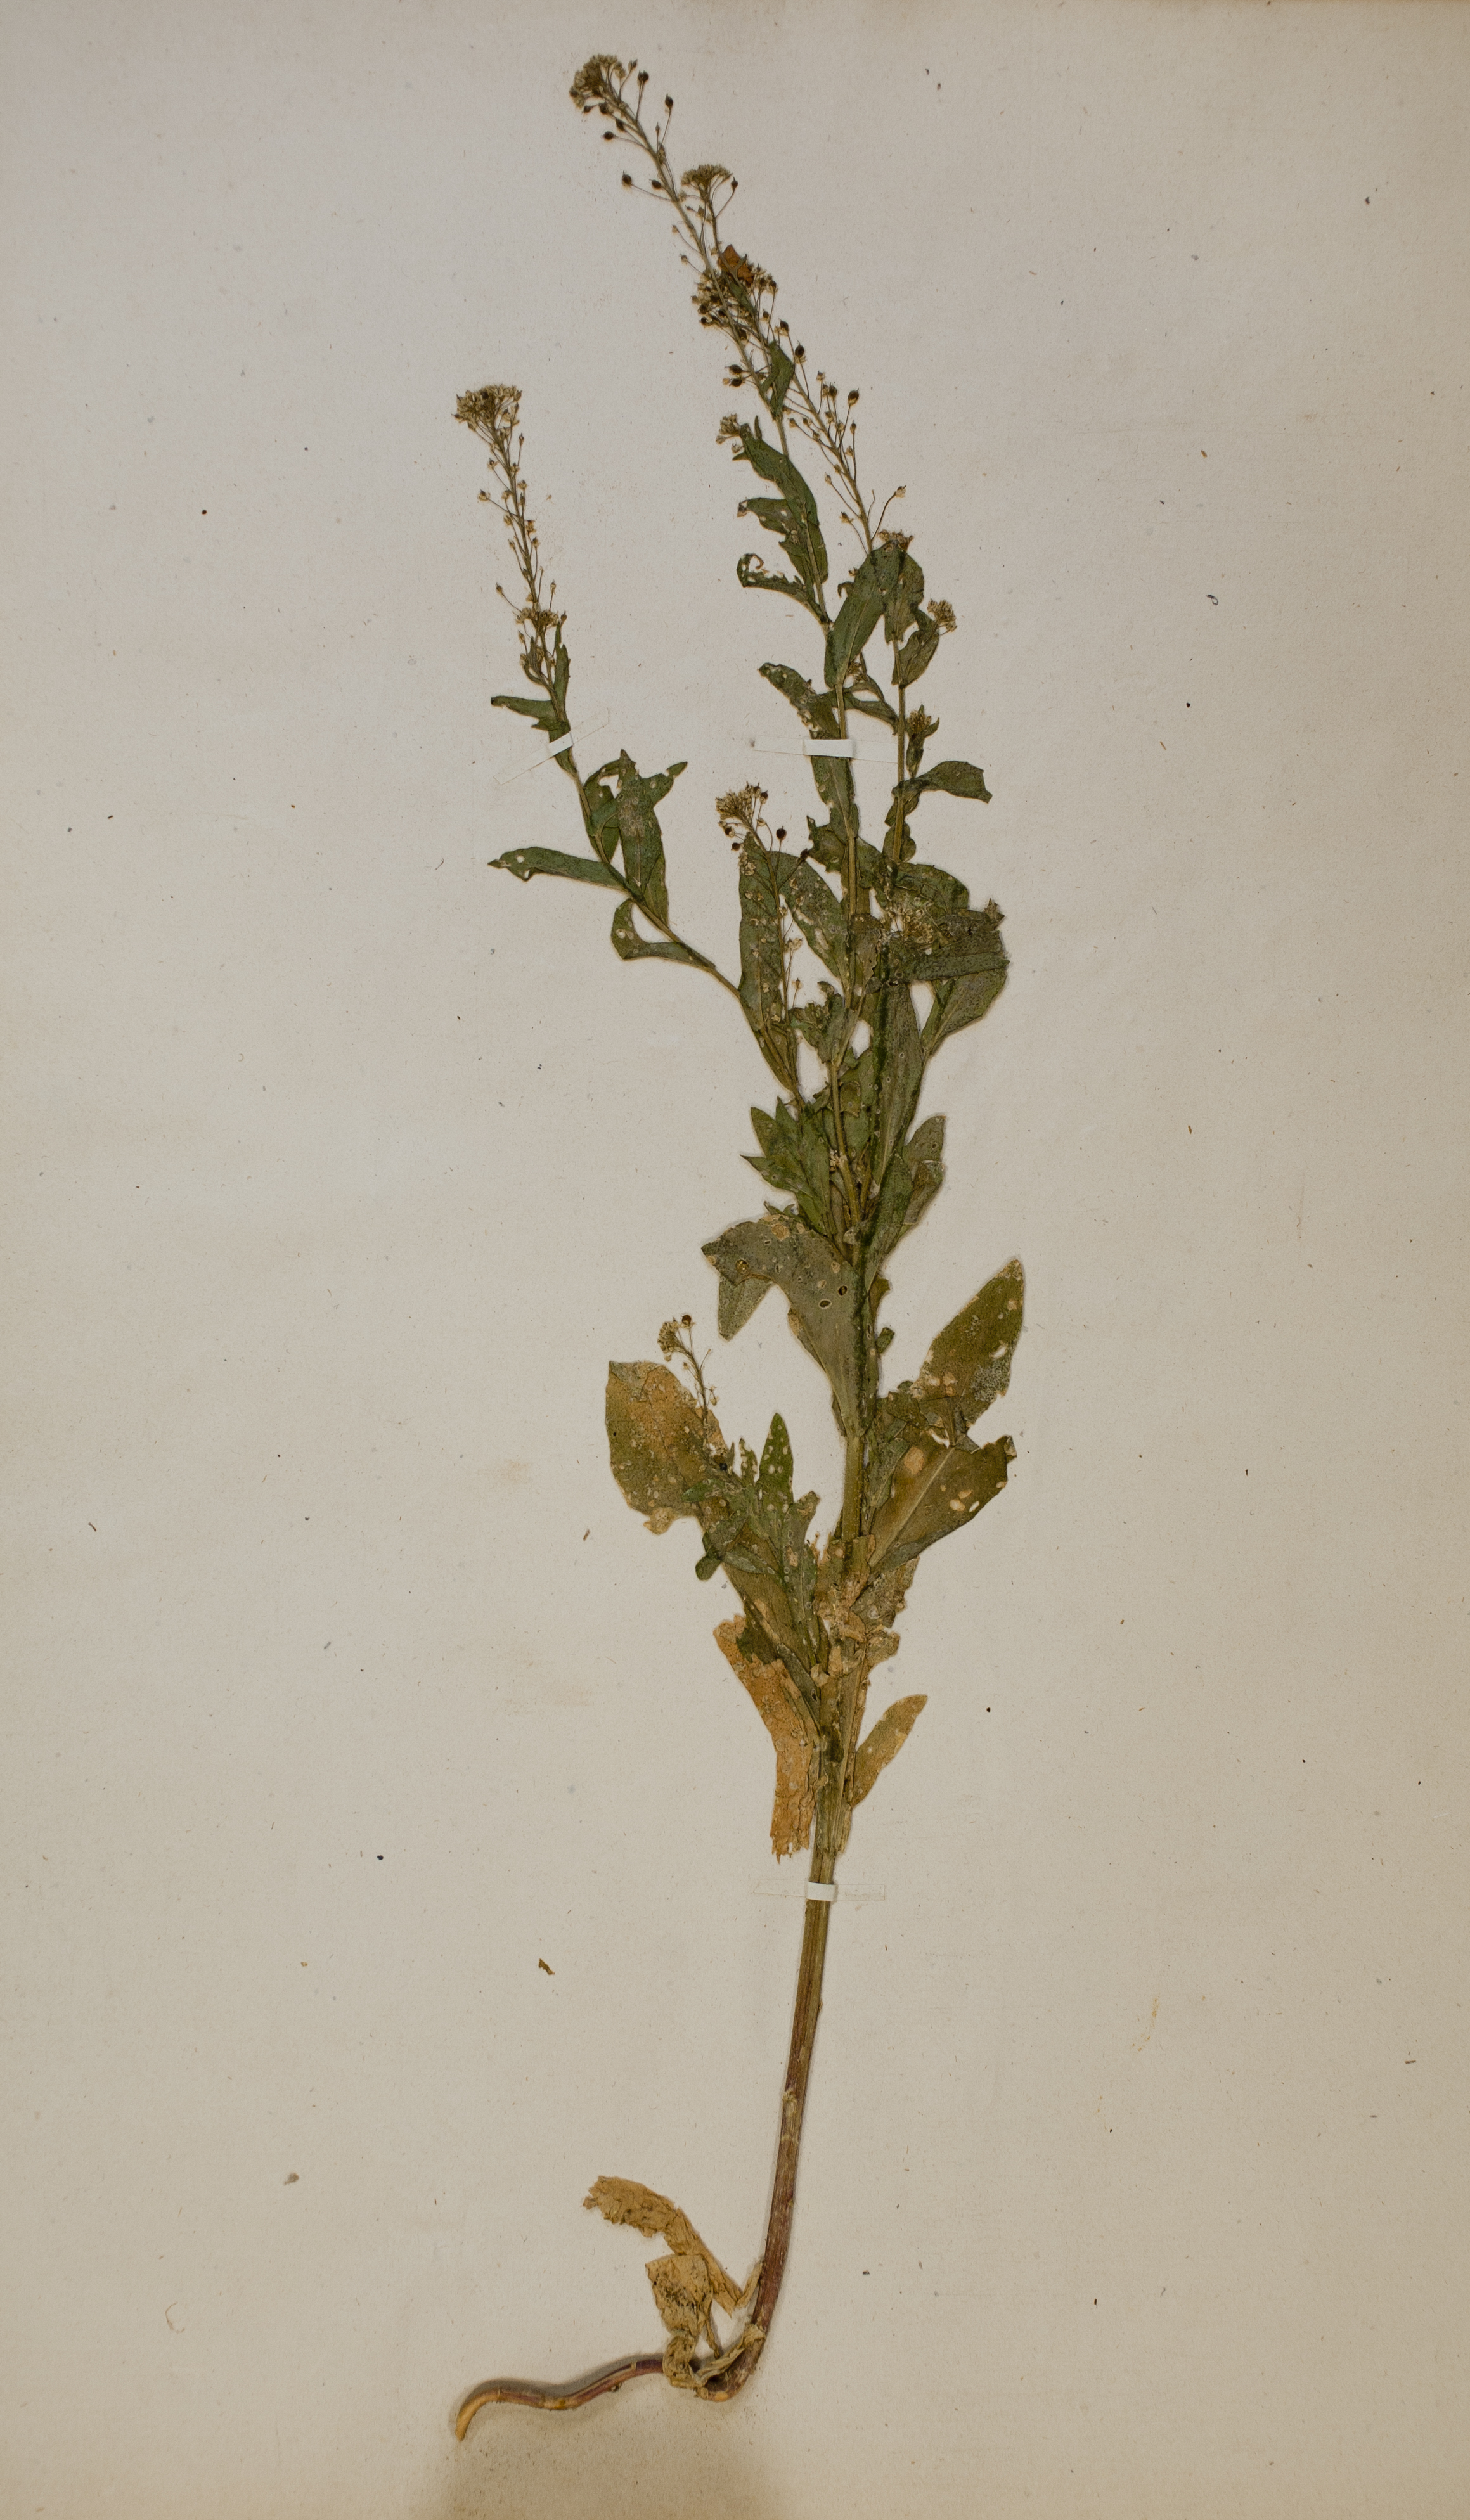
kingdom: Plantae
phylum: Tracheophyta
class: Magnoliopsida
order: Brassicales
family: Brassicaceae
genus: Neslia
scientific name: Neslia paniculata
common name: Ball mustard
